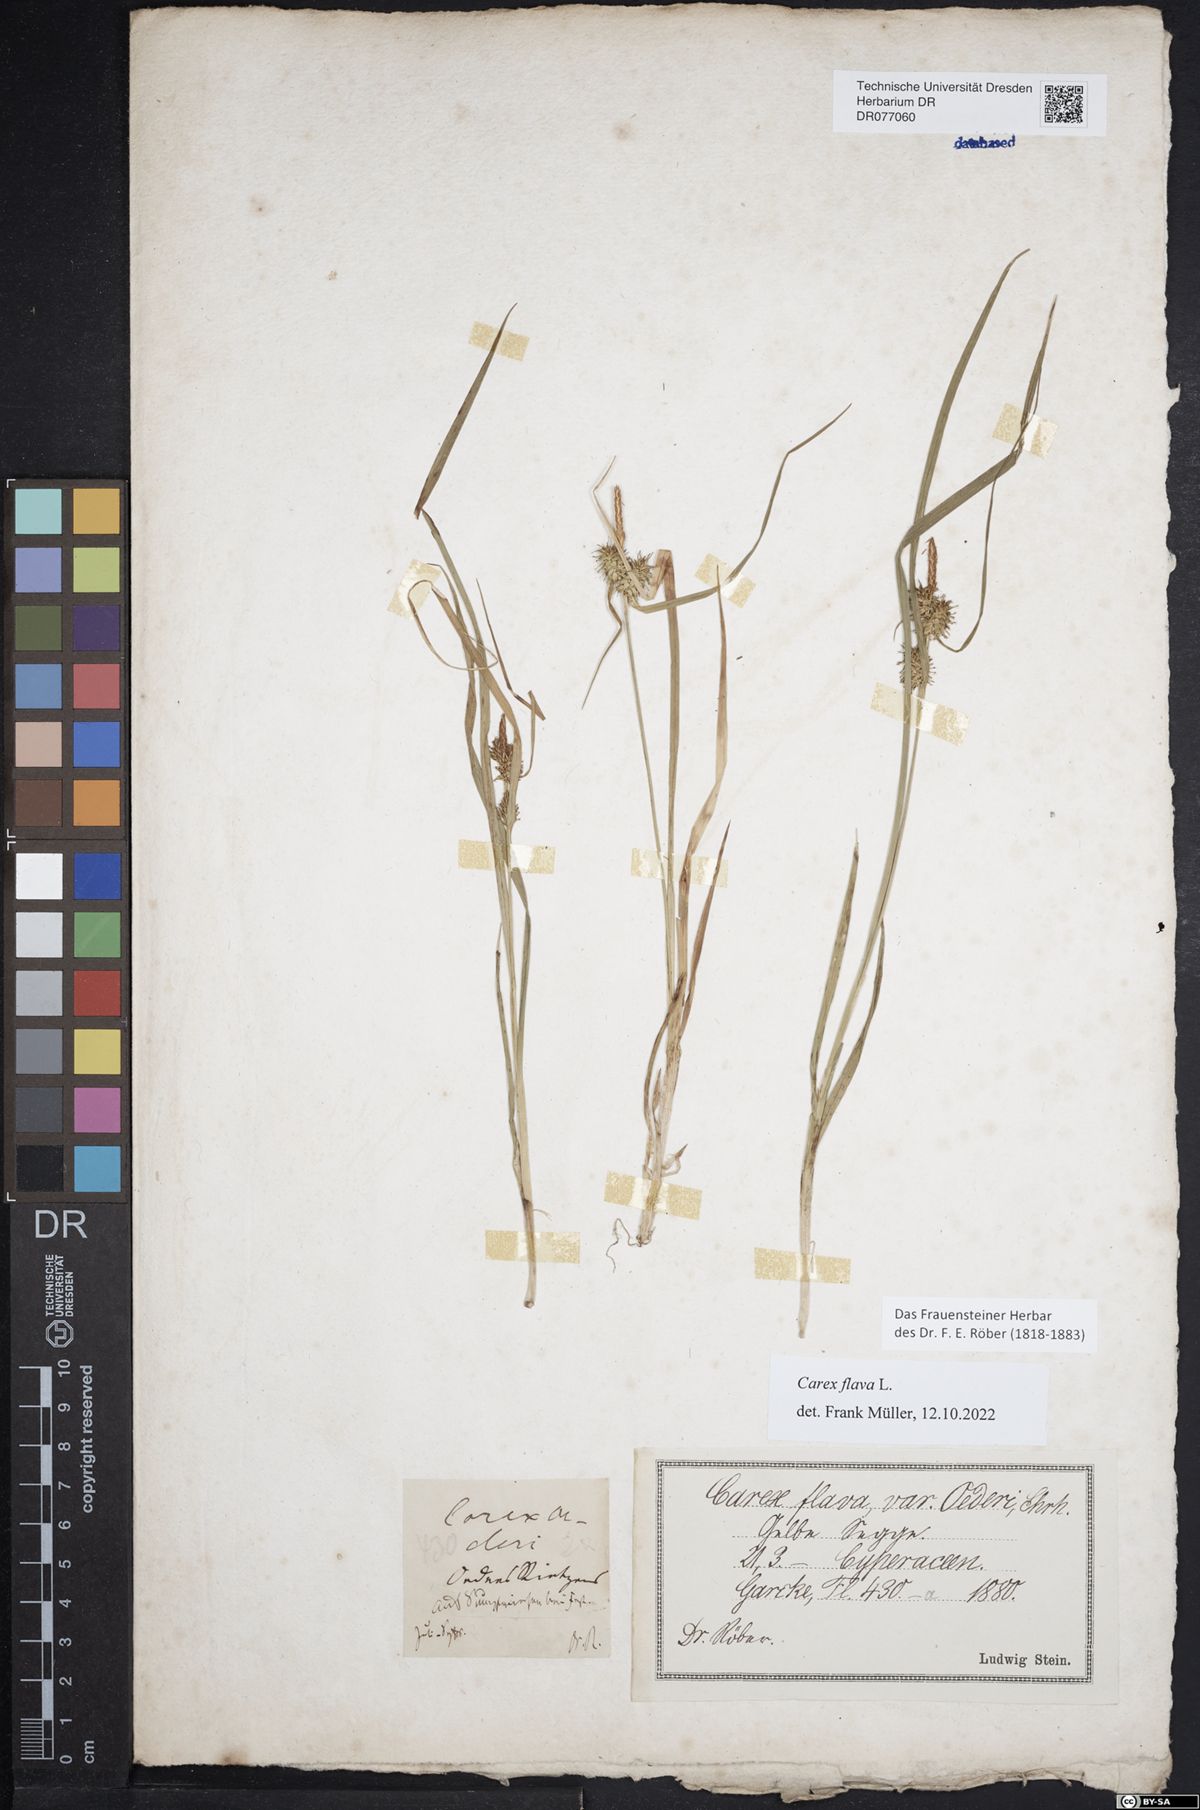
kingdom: Plantae
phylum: Tracheophyta
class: Liliopsida
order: Poales
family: Cyperaceae
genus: Carex
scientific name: Carex flava
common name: Large yellow-sedge
